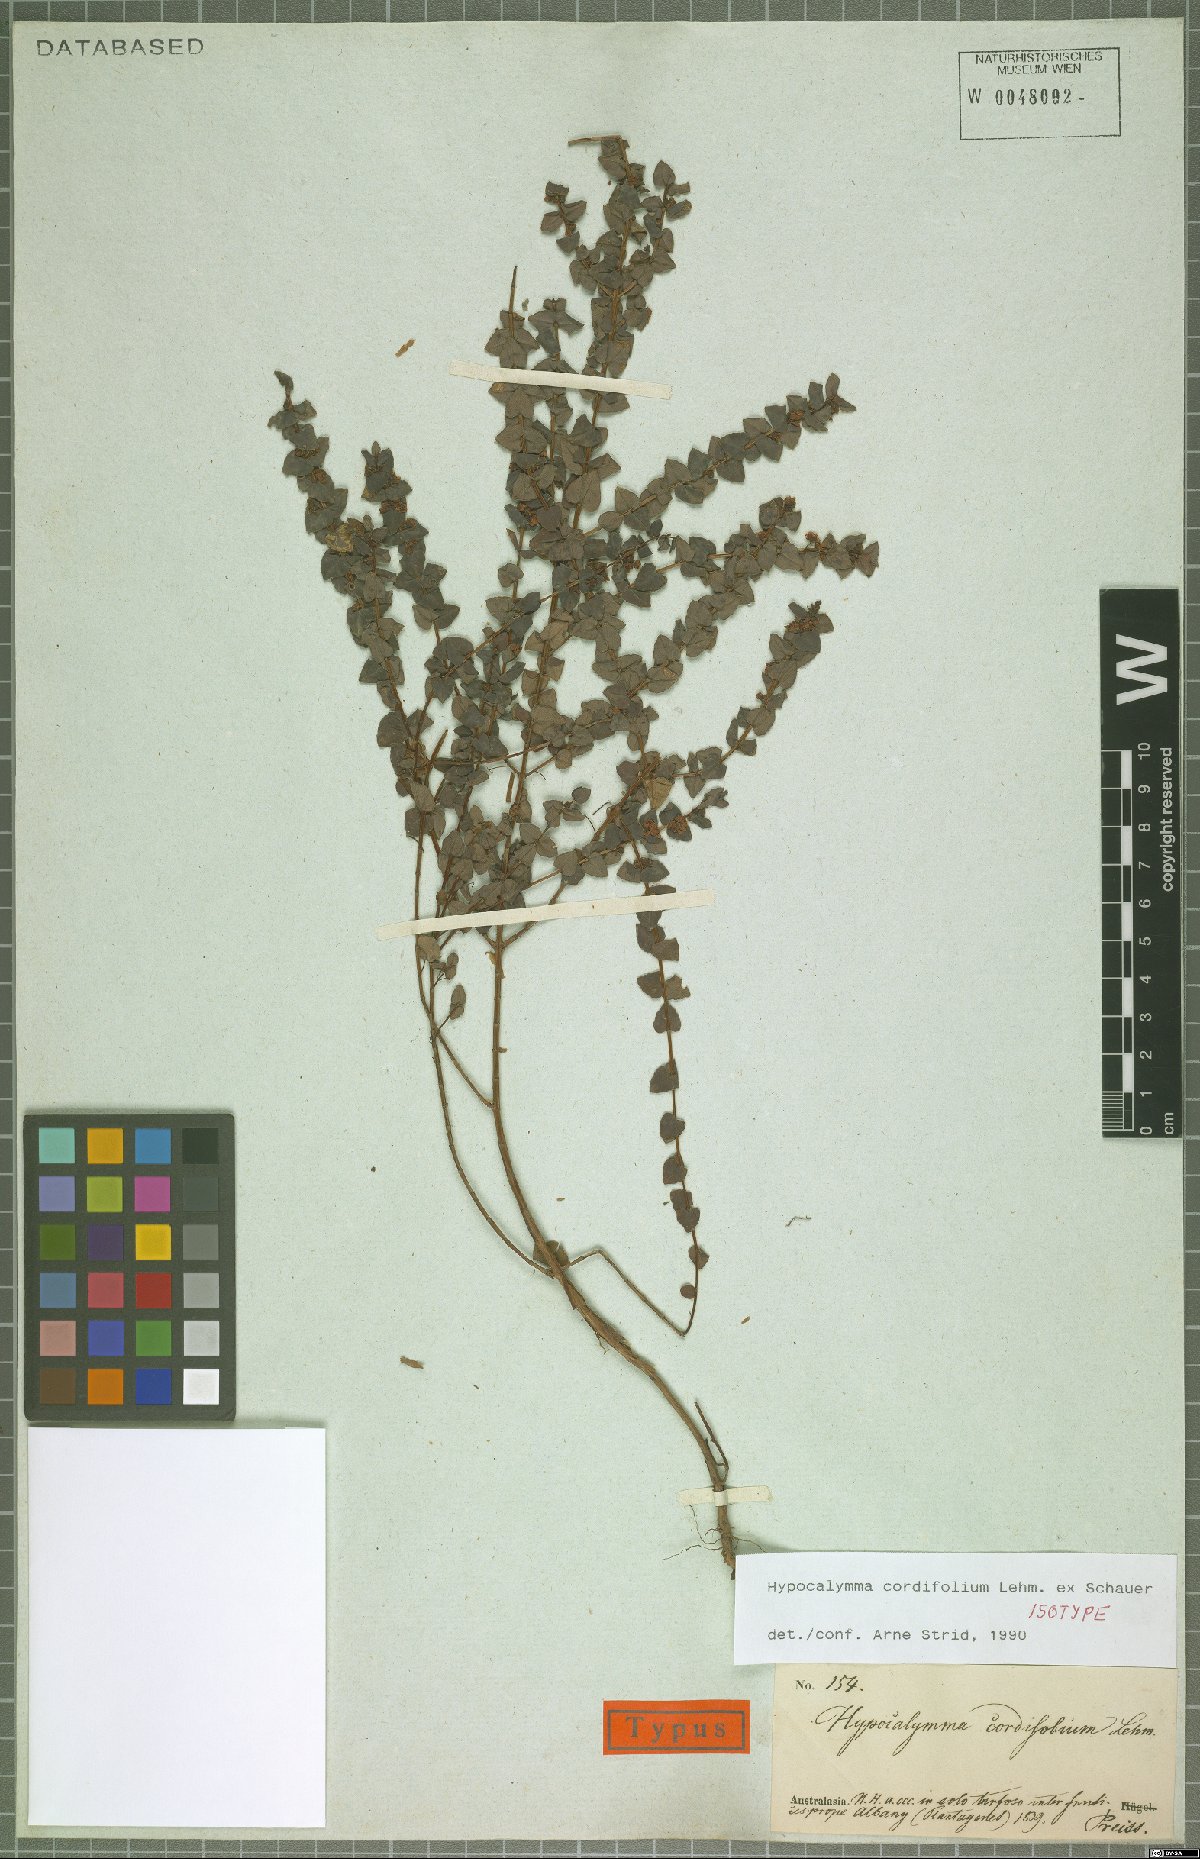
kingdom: Plantae
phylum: Tracheophyta
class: Magnoliopsida
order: Myrtales
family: Myrtaceae
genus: Hypocalymma
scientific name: Hypocalymma cordifolium
